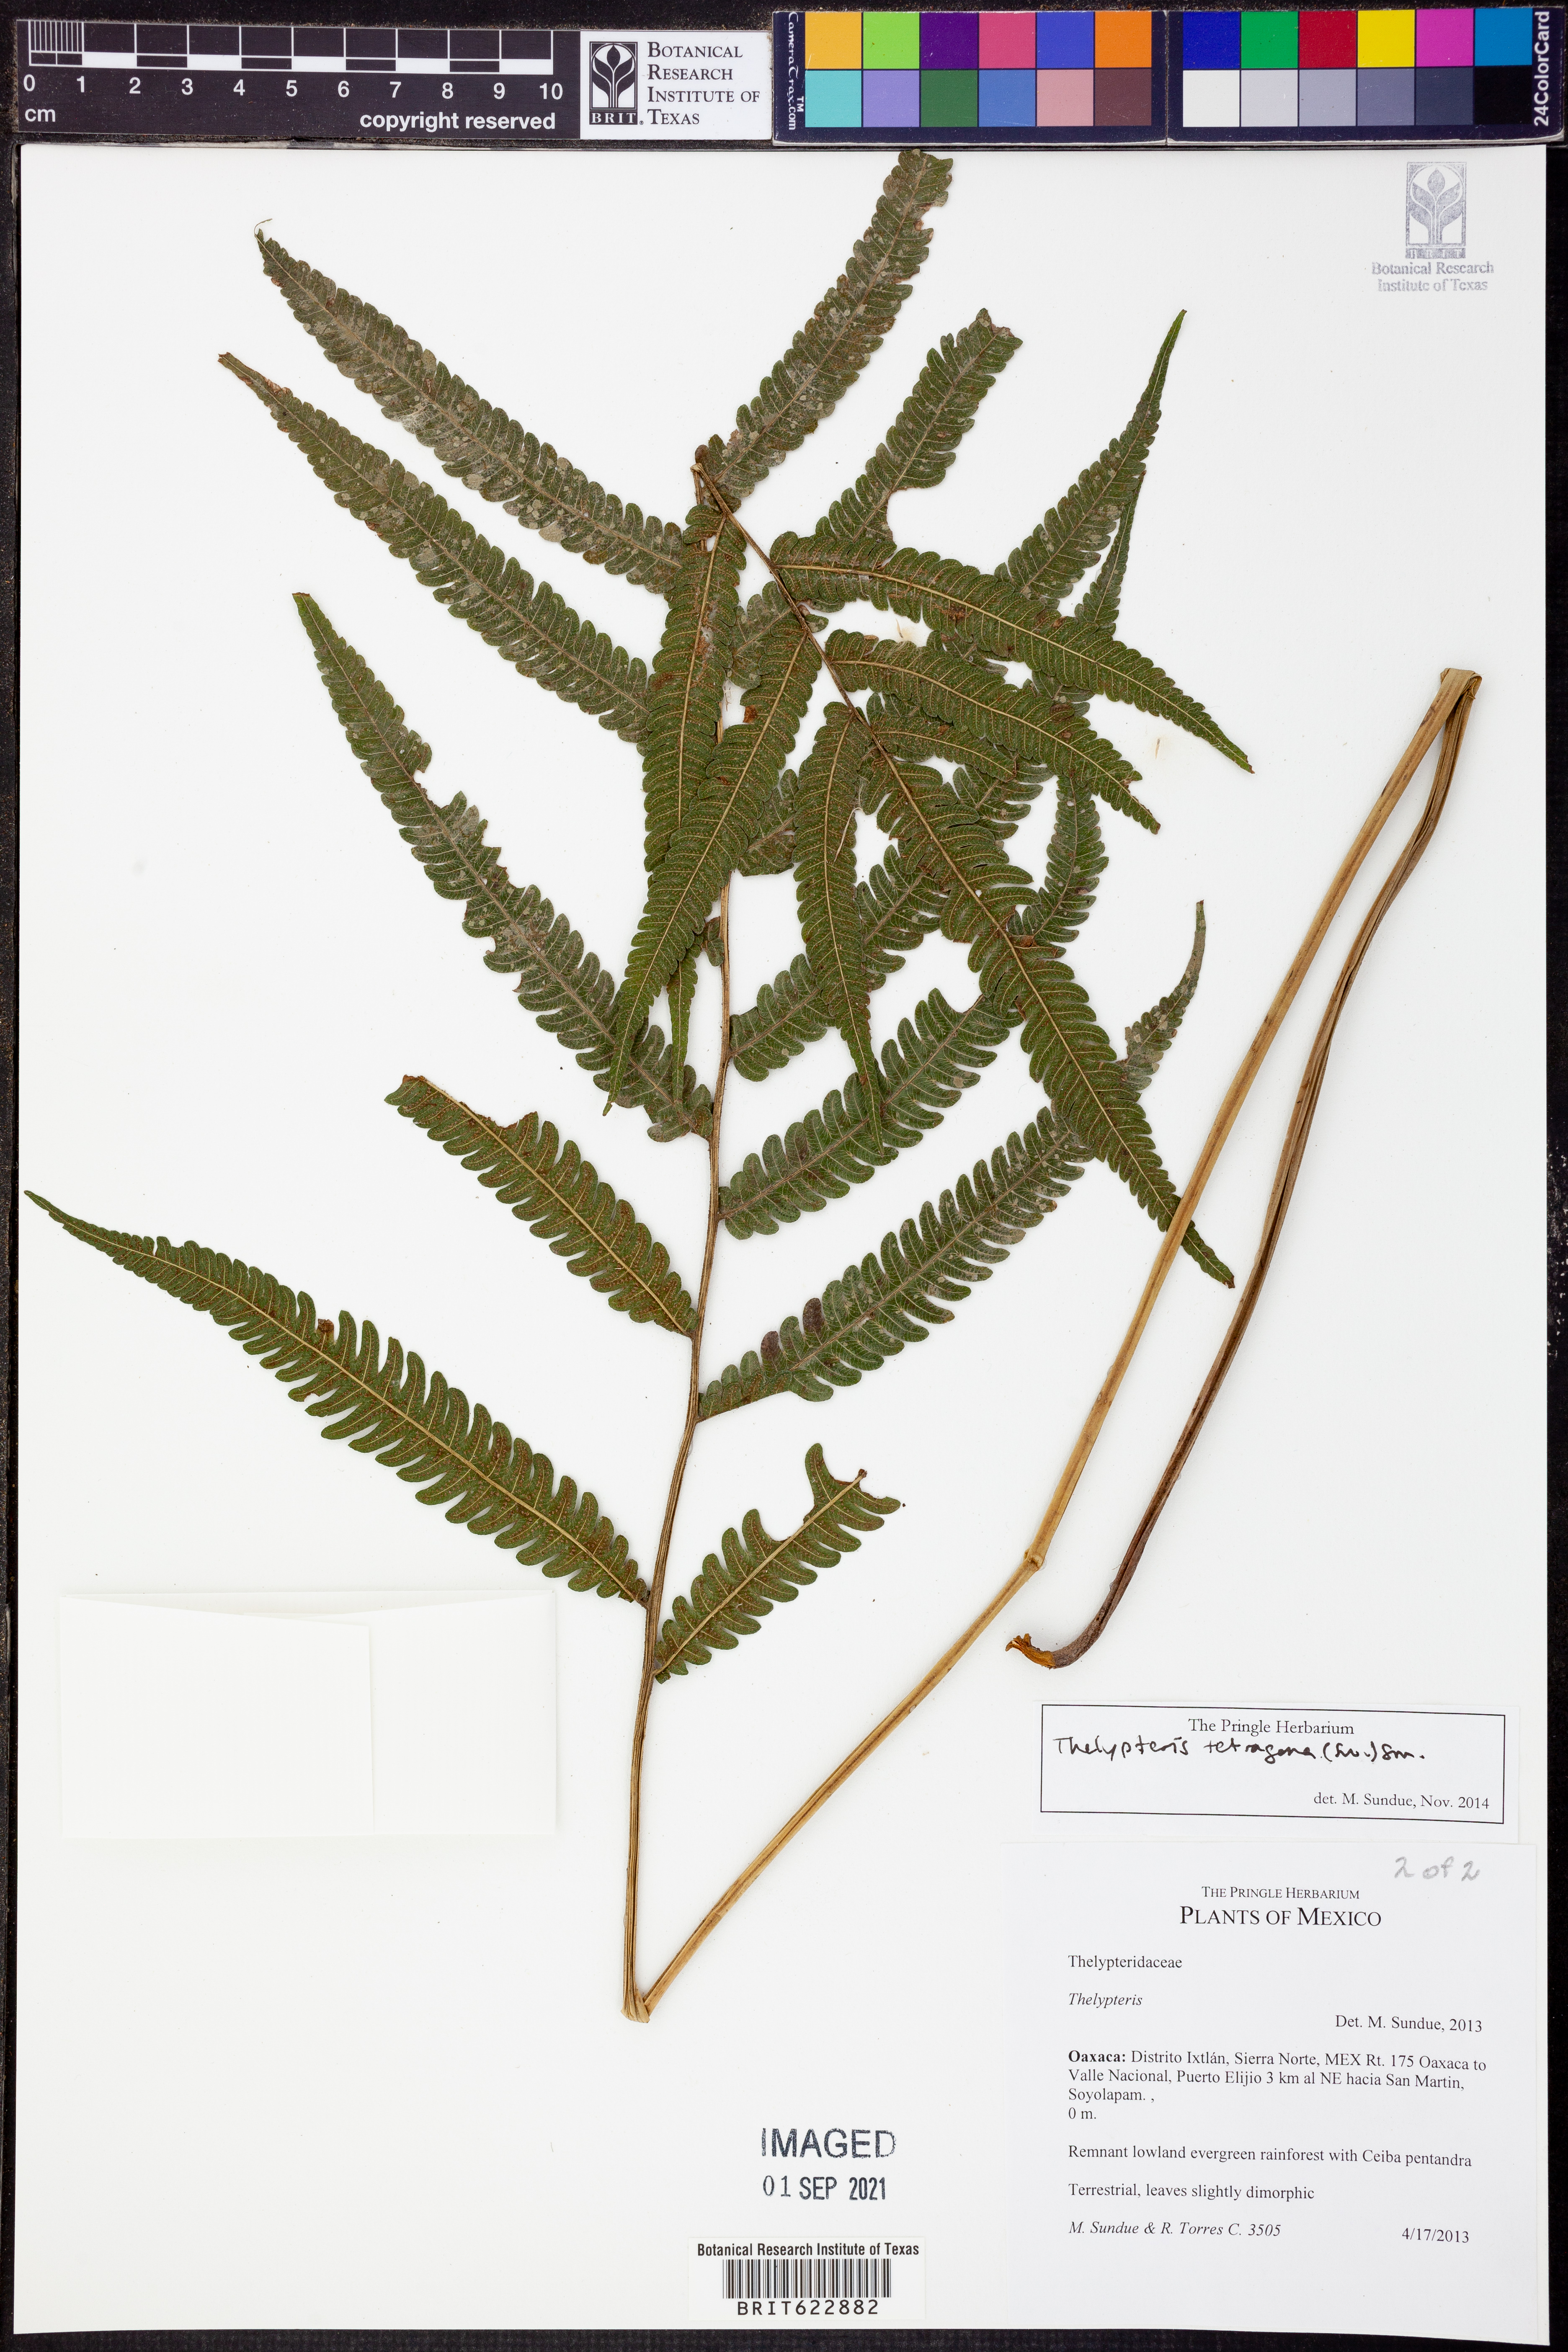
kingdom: Plantae
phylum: Tracheophyta
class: Polypodiopsida
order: Polypodiales
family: Thelypteridaceae
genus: Goniopteris
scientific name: Goniopteris tetragona
